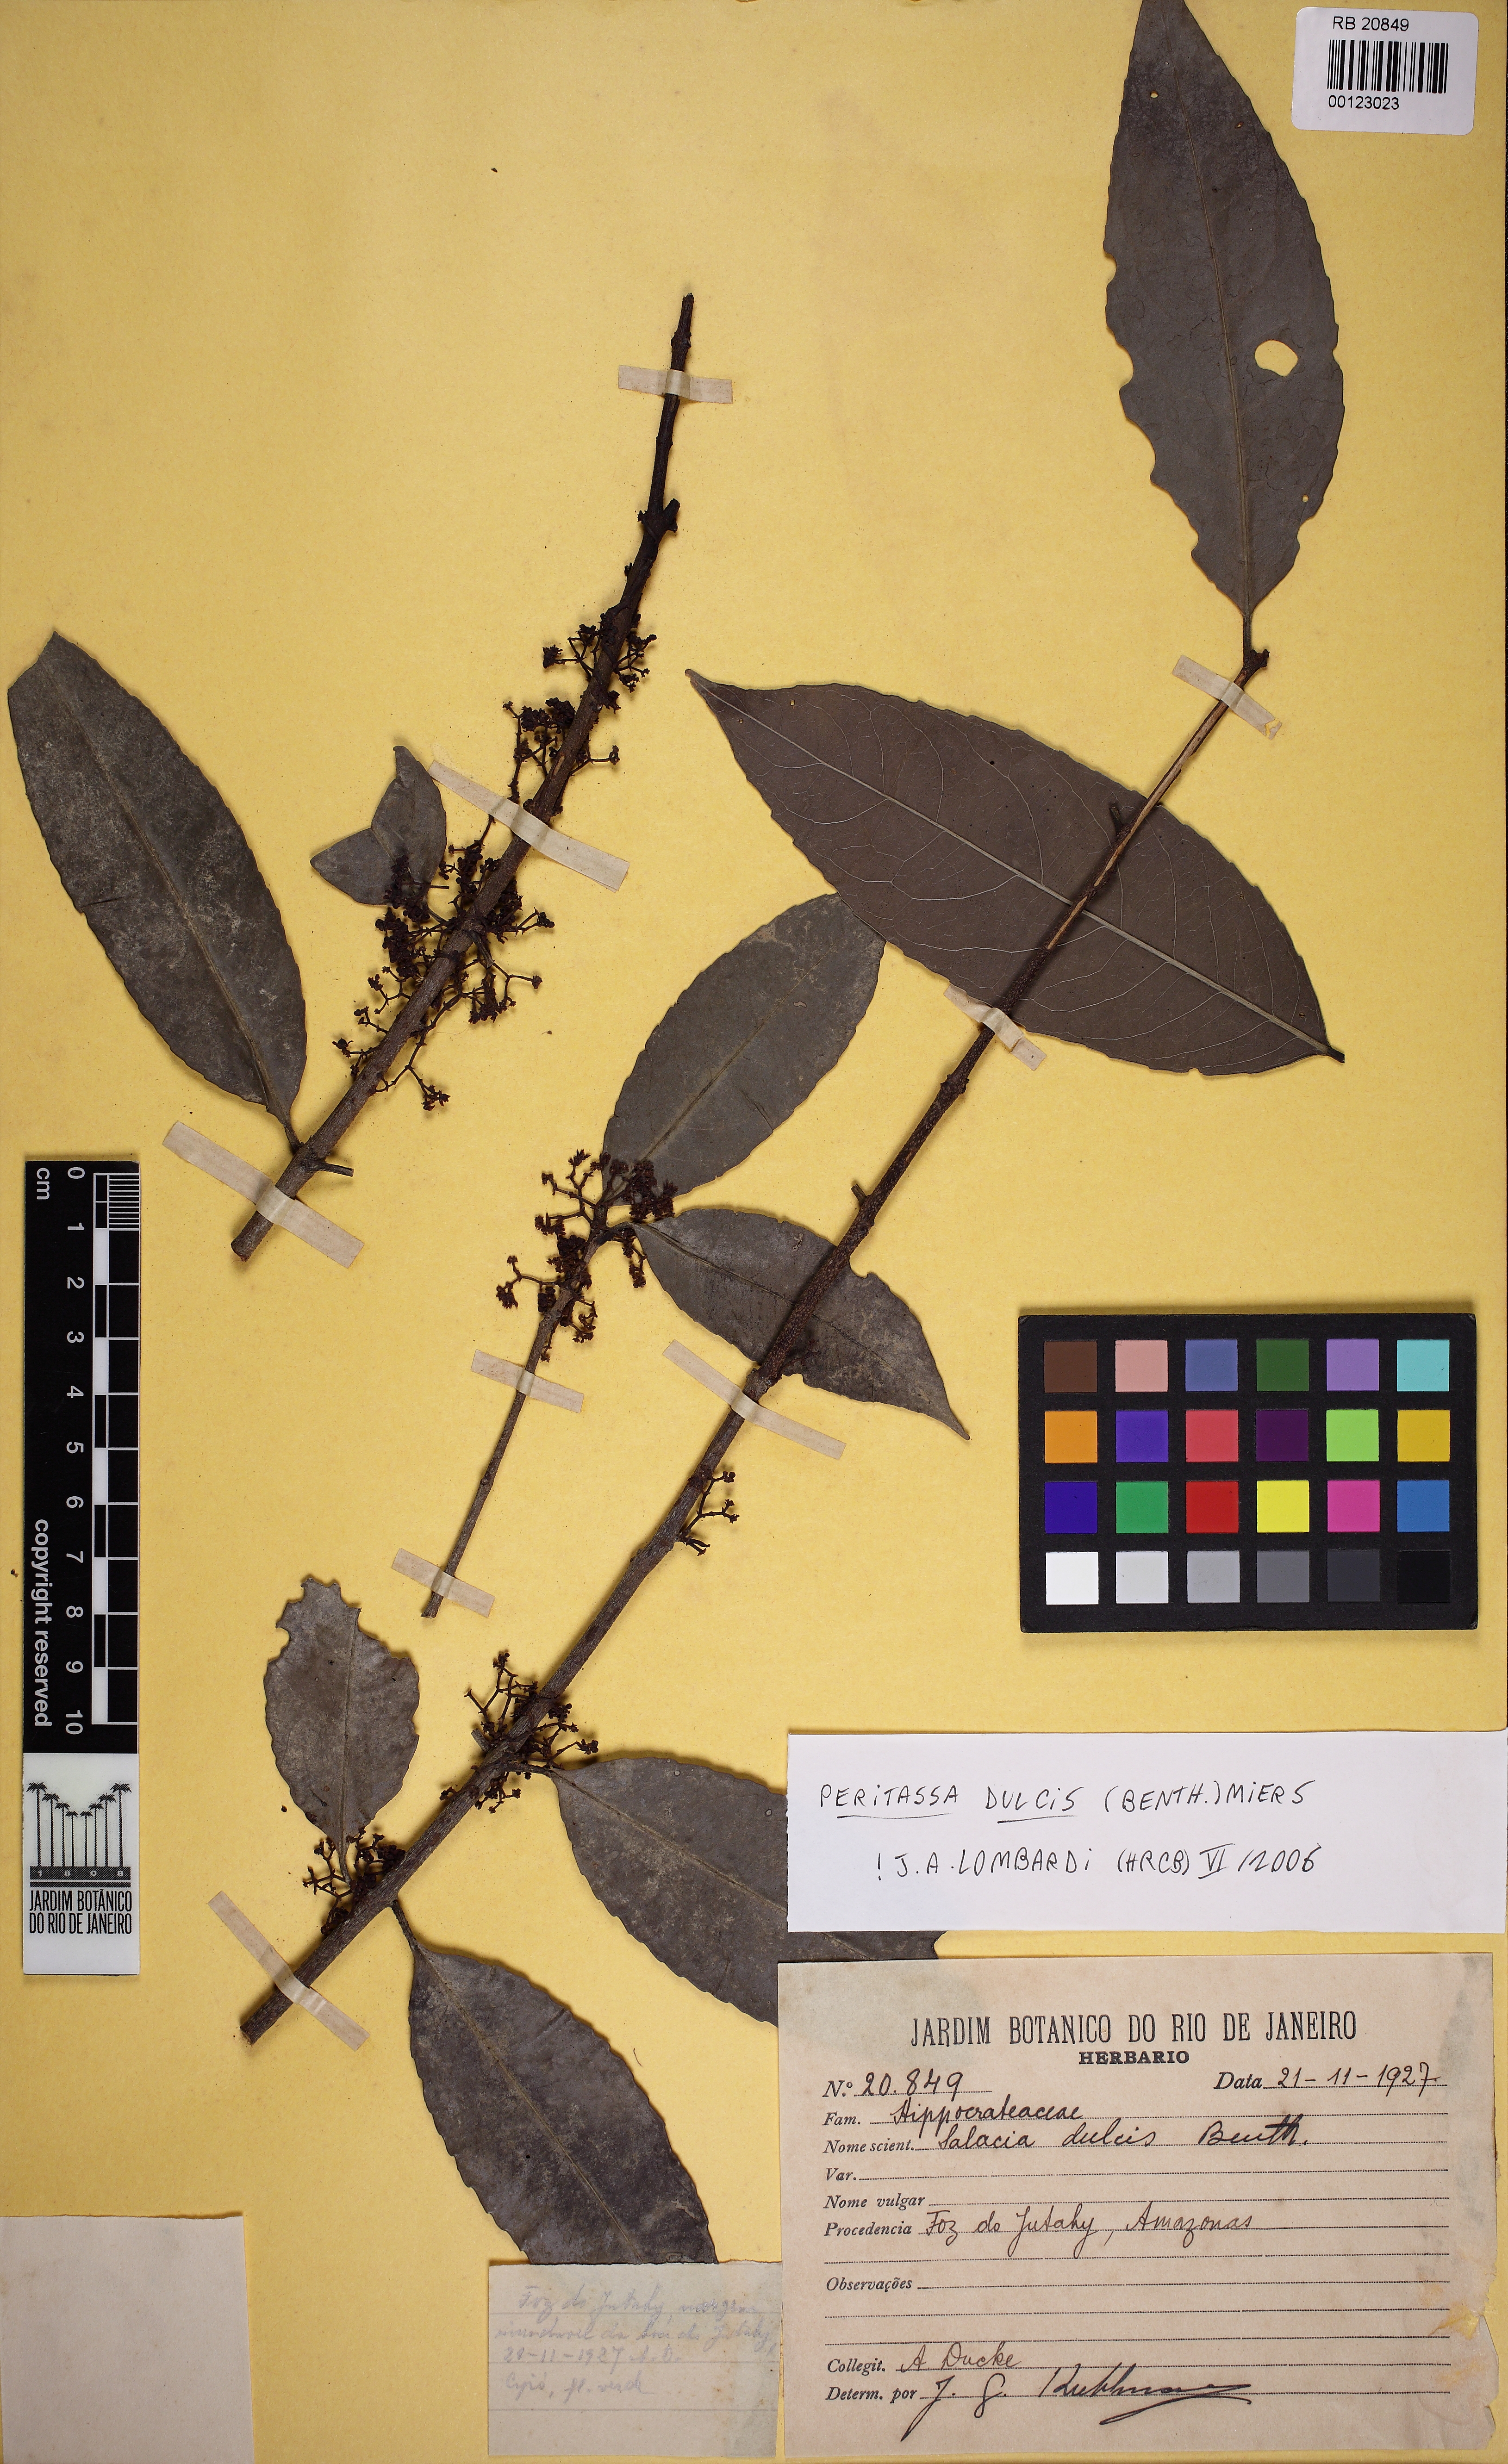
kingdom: Plantae
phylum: Tracheophyta
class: Magnoliopsida
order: Celastrales
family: Celastraceae
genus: Peritassa
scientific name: Peritassa dulcis
